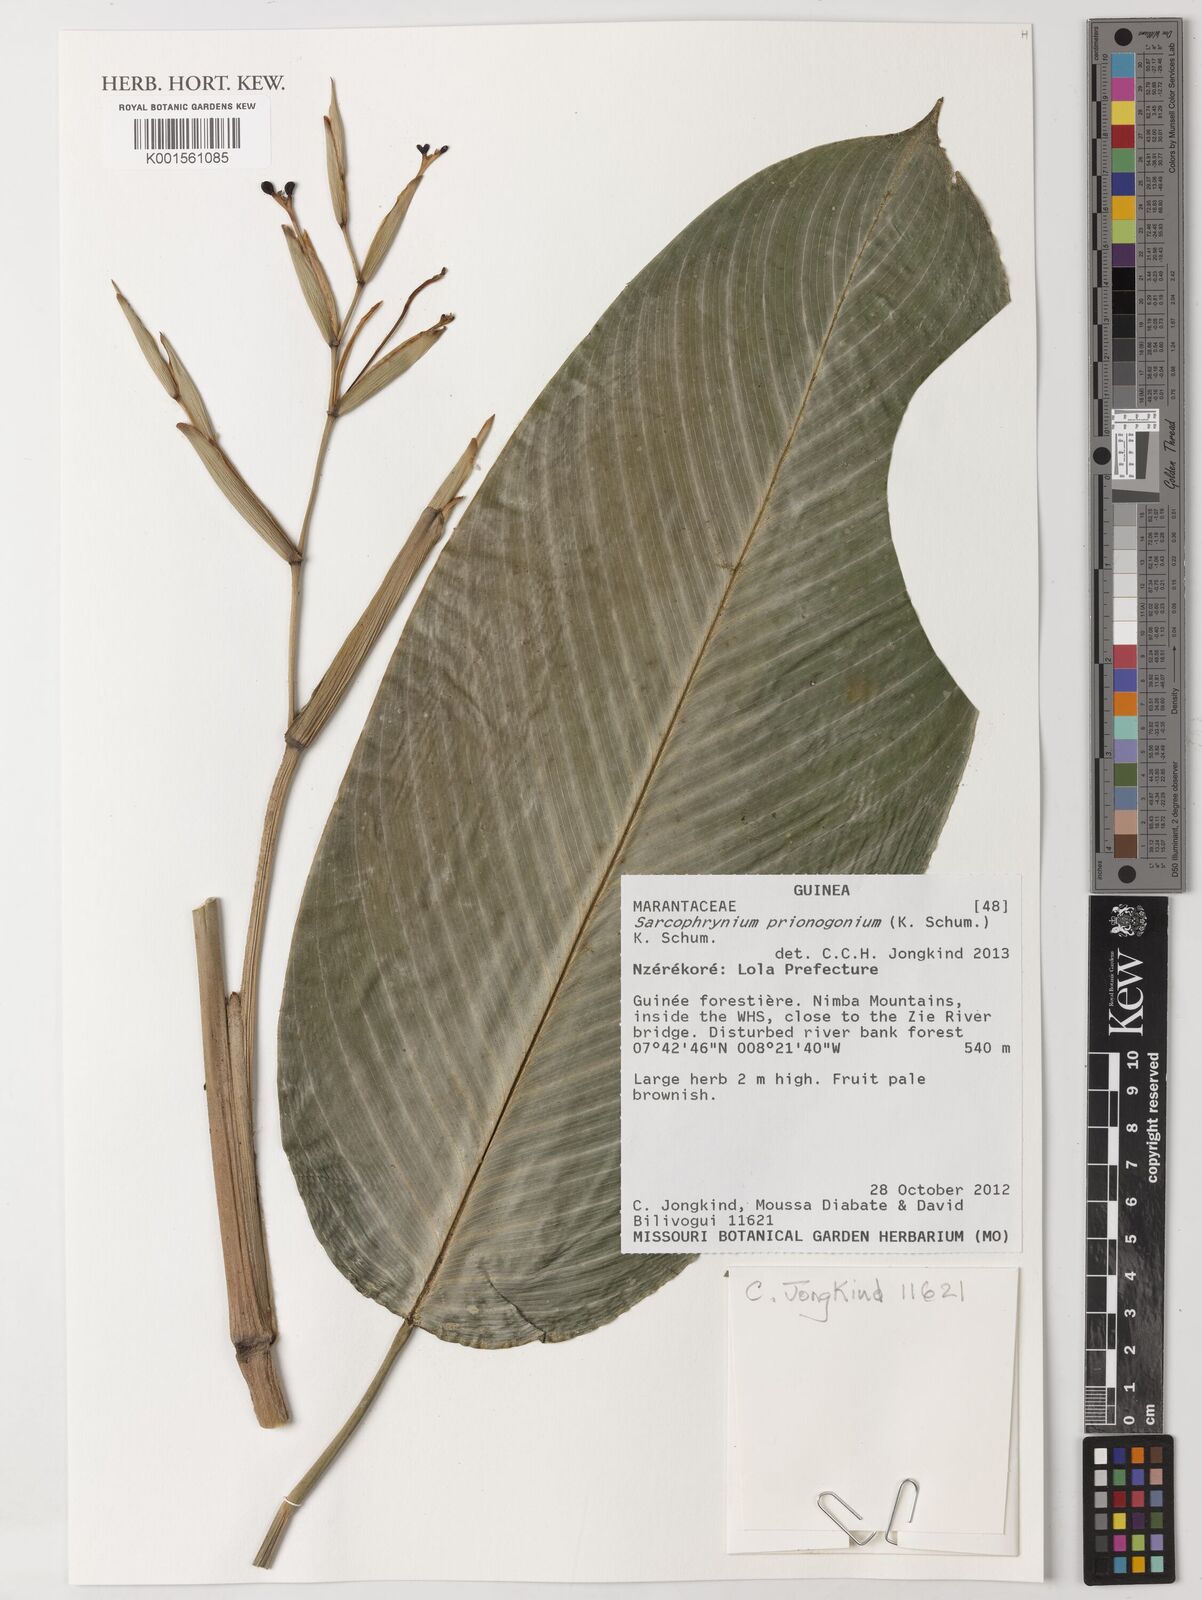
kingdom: Plantae
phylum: Tracheophyta
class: Liliopsida
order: Zingiberales
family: Marantaceae
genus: Sarcophrynium
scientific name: Sarcophrynium prionogonium
